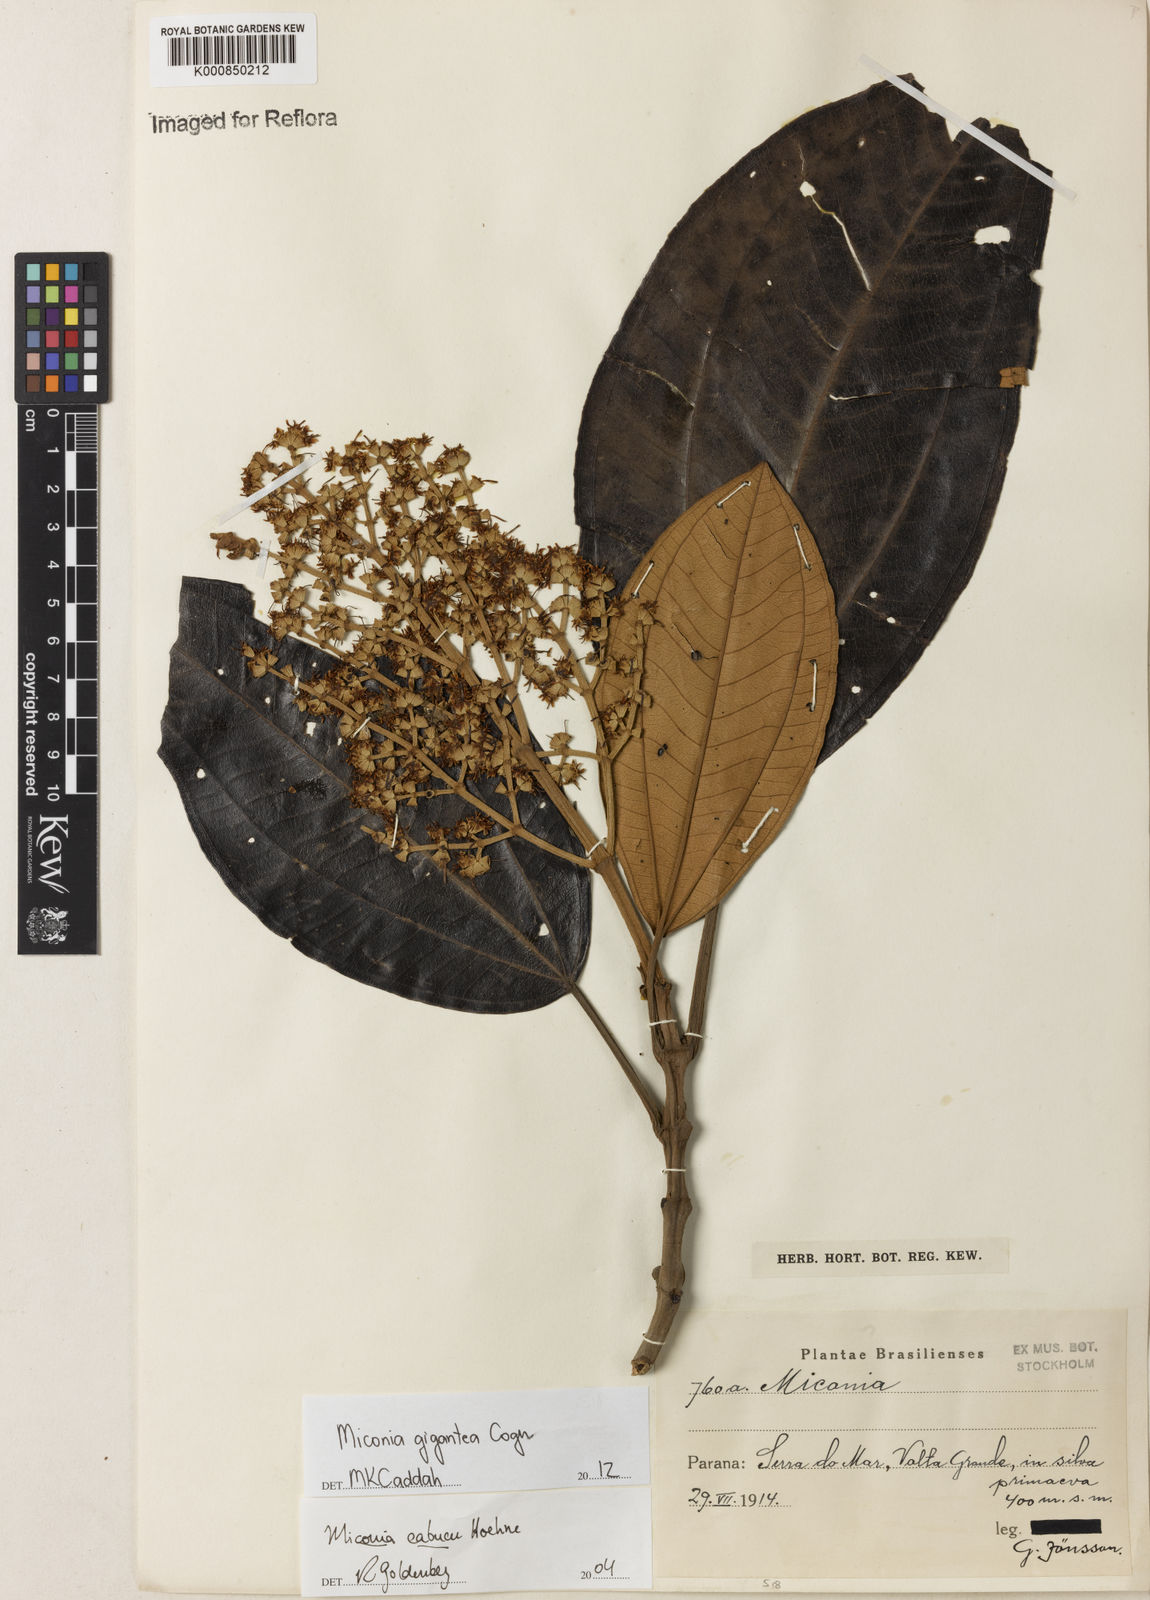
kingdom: Plantae
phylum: Tracheophyta
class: Magnoliopsida
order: Myrtales
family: Melastomataceae
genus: Miconia
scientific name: Miconia formosa
